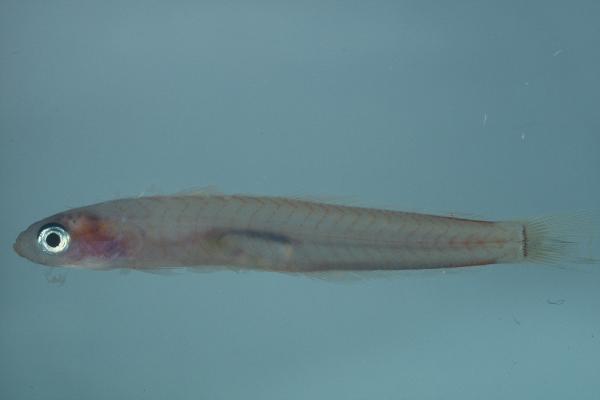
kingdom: Animalia
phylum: Chordata
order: Perciformes
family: Microdesmidae
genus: Ptereleotris
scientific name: Ptereleotris heteroptera
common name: Blacktail goby
